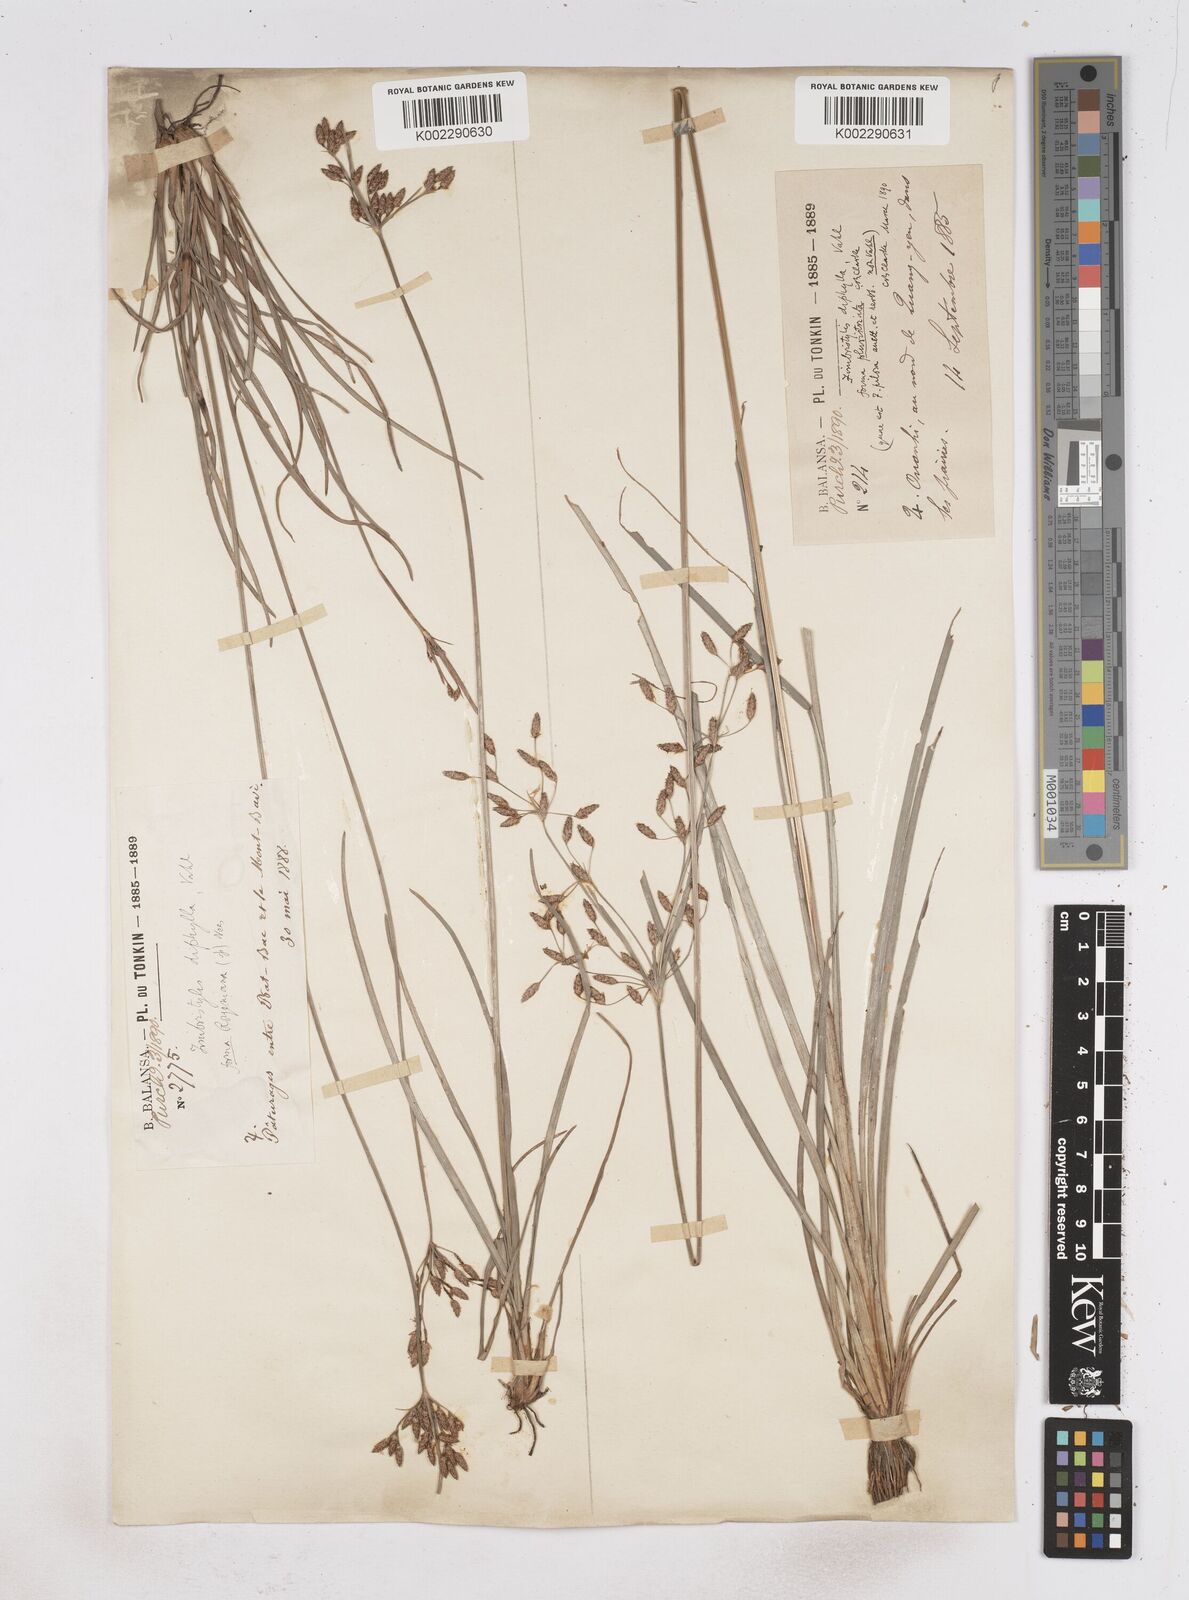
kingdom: Plantae
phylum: Tracheophyta
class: Liliopsida
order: Poales
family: Cyperaceae
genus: Fimbristylis
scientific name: Fimbristylis dichotoma
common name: Forked fimbry
